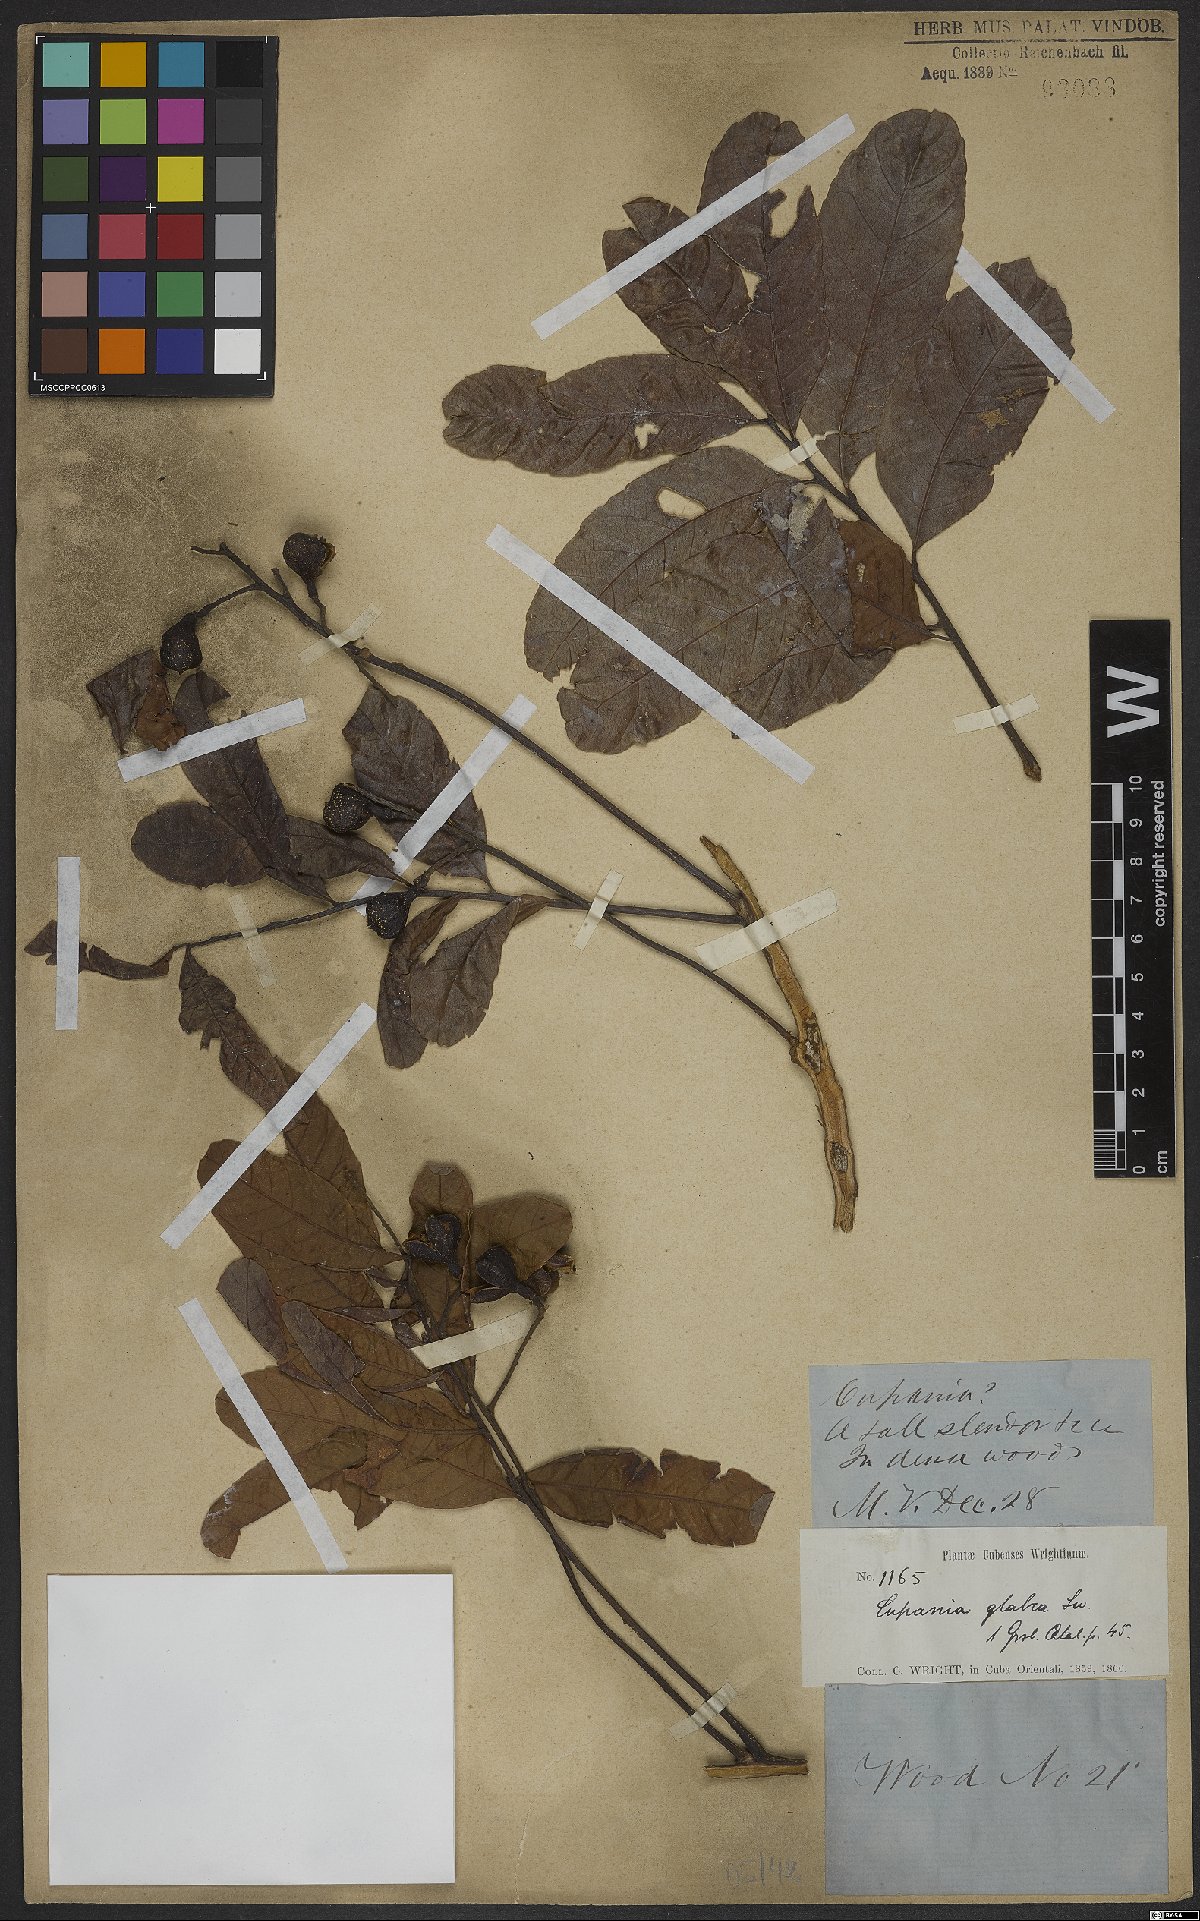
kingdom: Plantae
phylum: Tracheophyta
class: Magnoliopsida
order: Sapindales
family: Sapindaceae
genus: Cupania
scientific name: Cupania glabra
